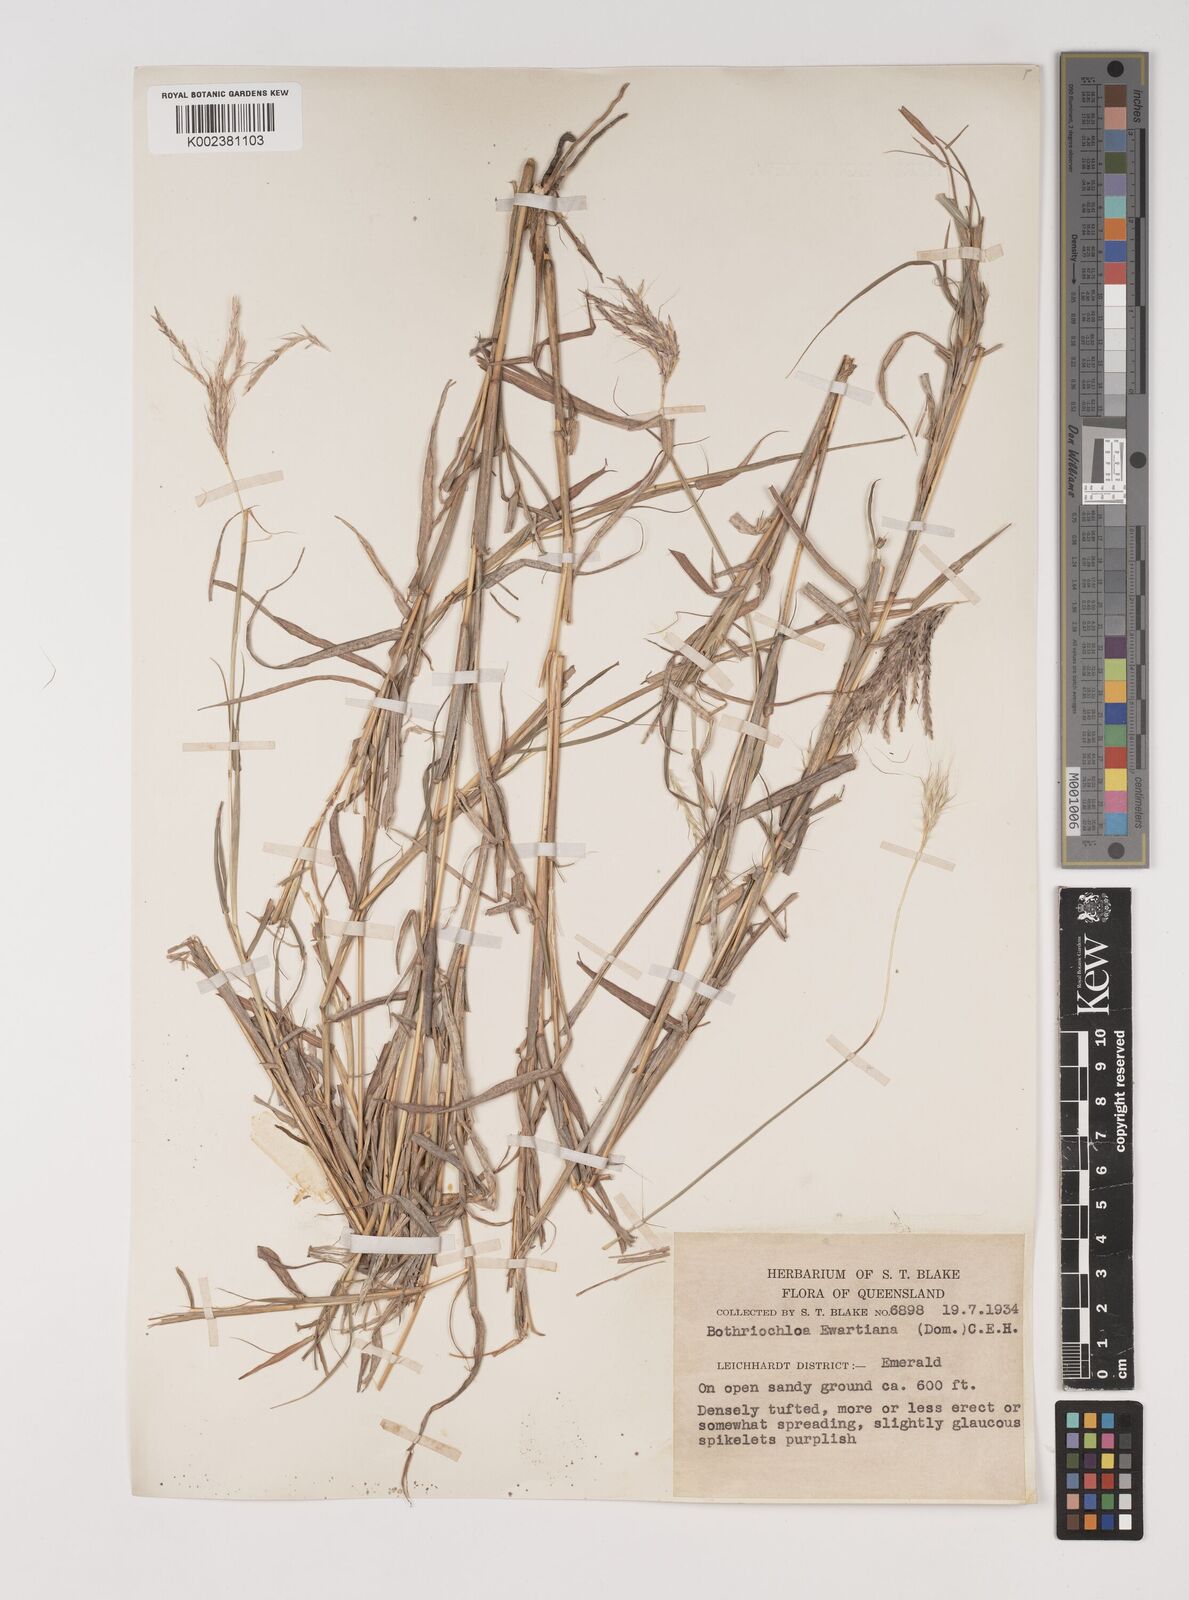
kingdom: Plantae
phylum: Tracheophyta
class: Liliopsida
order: Poales
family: Poaceae
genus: Bothriochloa
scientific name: Bothriochloa ewartiana
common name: Desert-bluegrass
